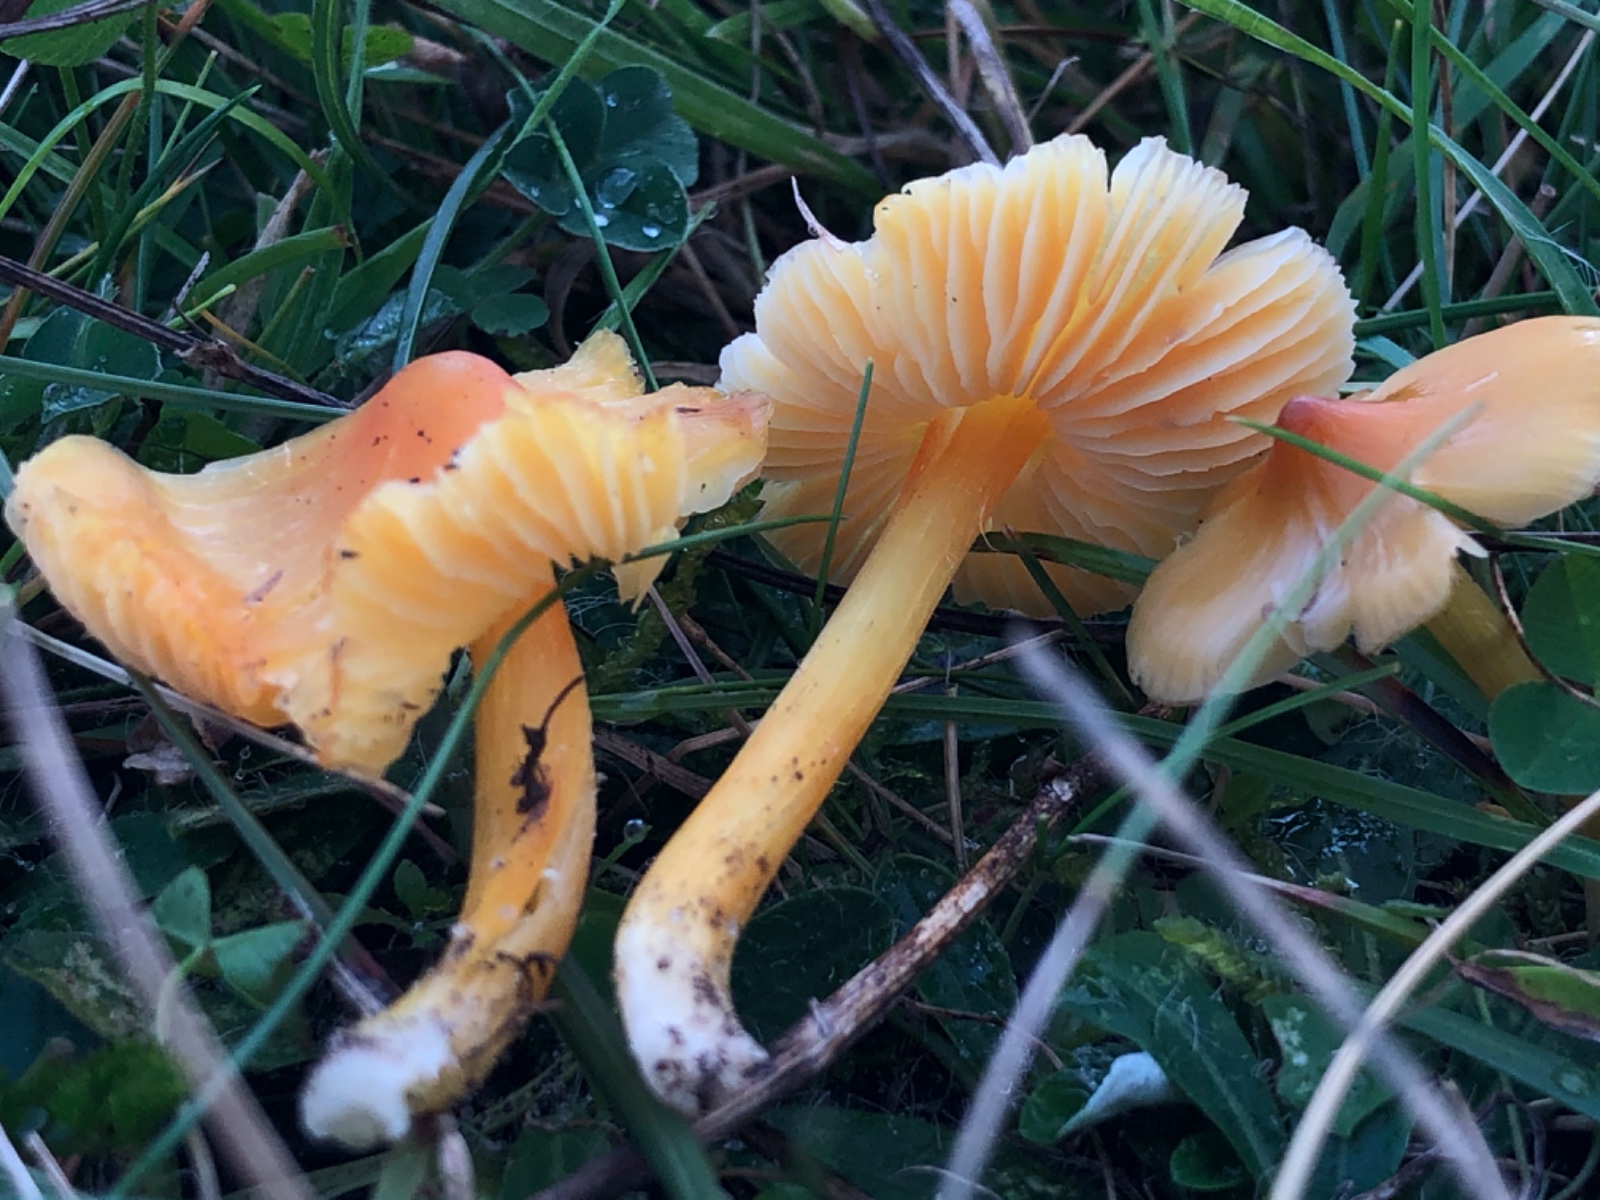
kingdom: Fungi
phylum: Basidiomycota
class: Agaricomycetes
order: Agaricales
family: Hygrophoraceae
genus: Hygrocybe
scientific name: Hygrocybe chlorophana
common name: gul vokshat
